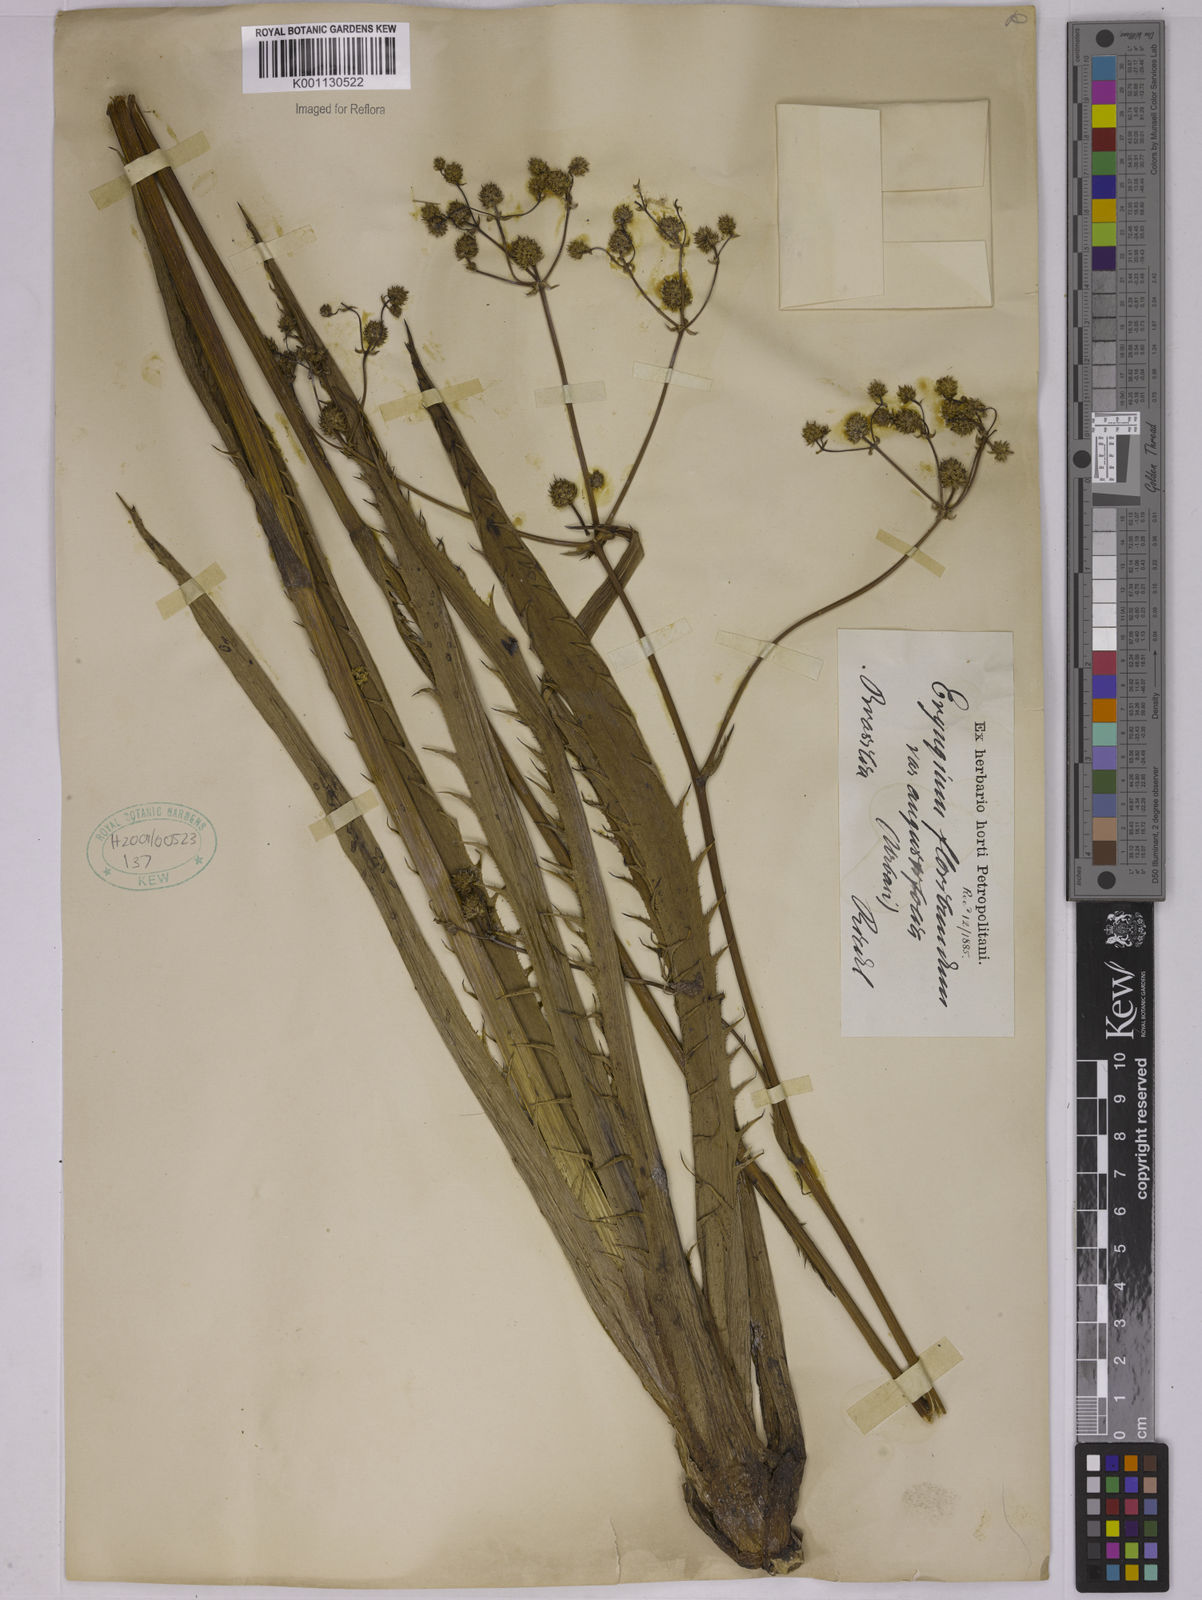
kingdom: Plantae
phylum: Tracheophyta
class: Magnoliopsida
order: Apiales
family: Apiaceae
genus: Eryngium
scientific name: Eryngium floribundum
